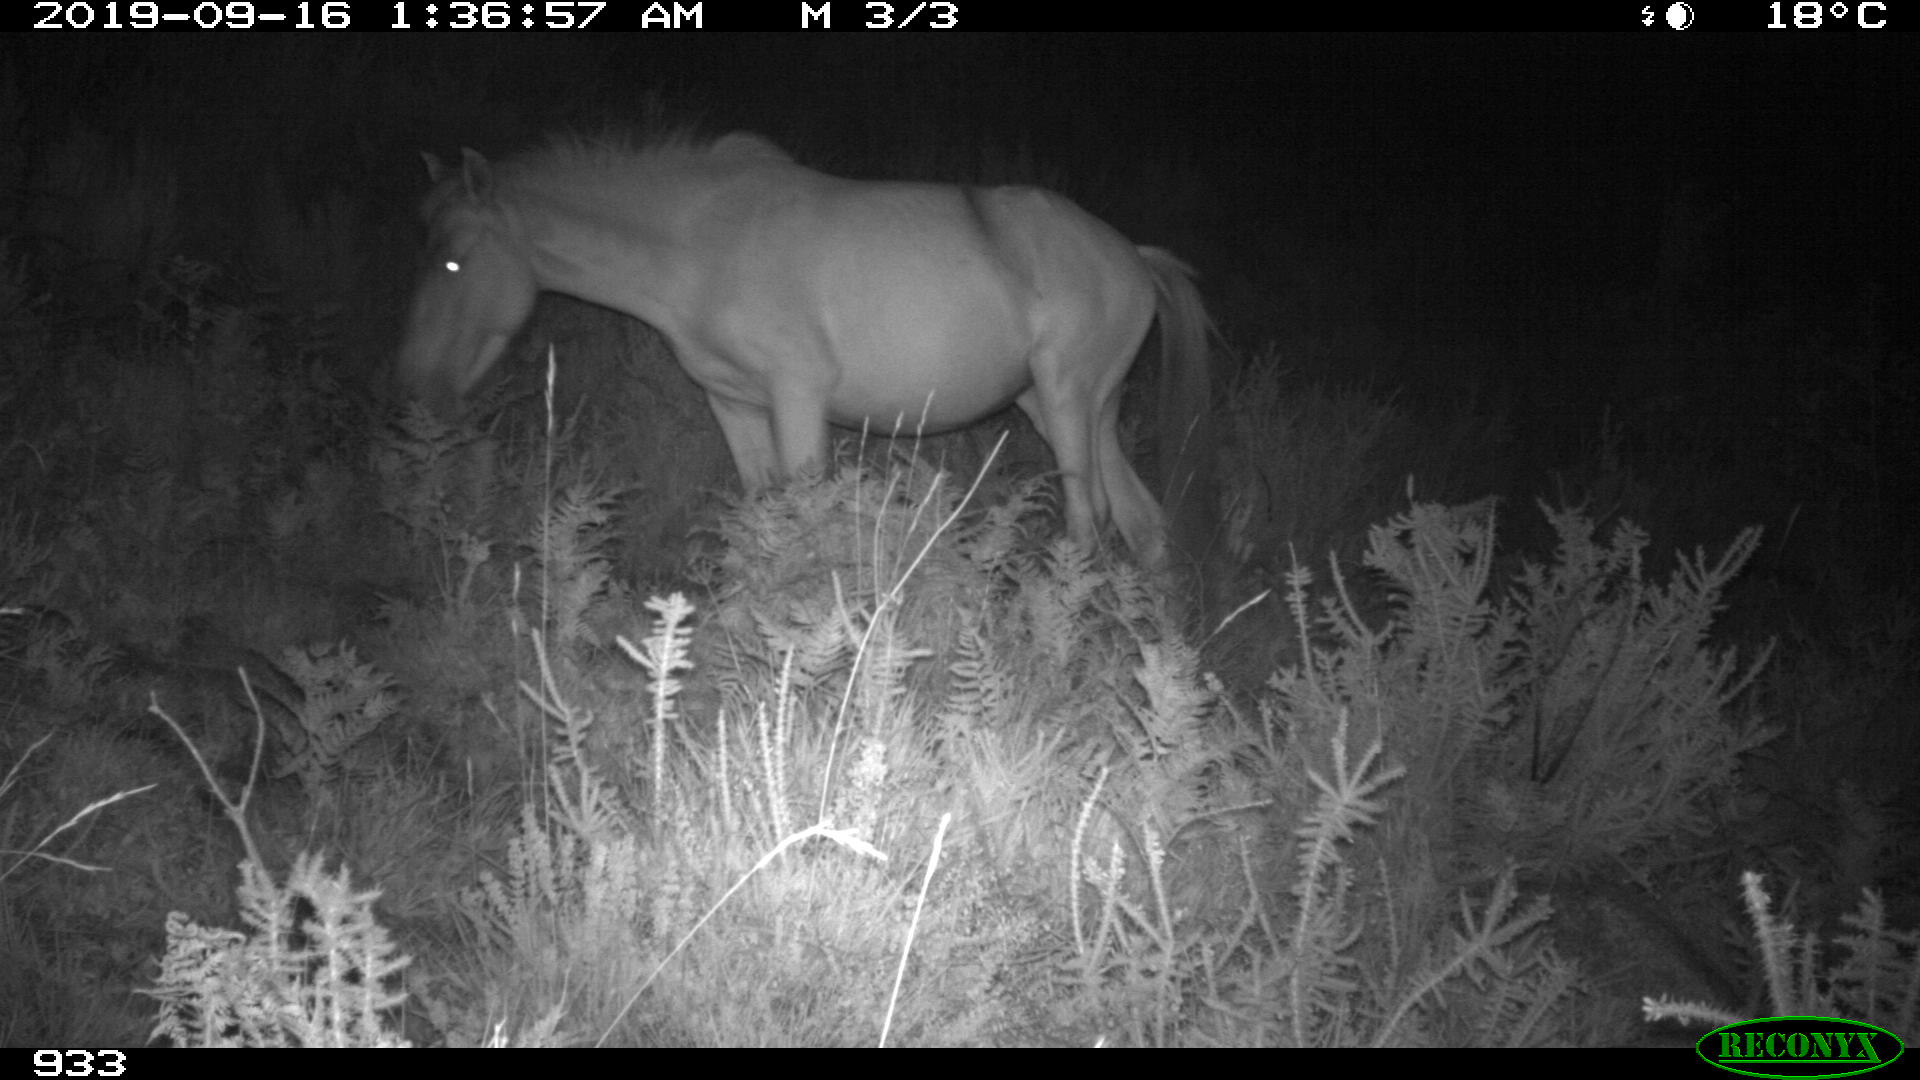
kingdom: Animalia
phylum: Chordata
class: Mammalia
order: Perissodactyla
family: Equidae
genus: Equus
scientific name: Equus caballus
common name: Horse
